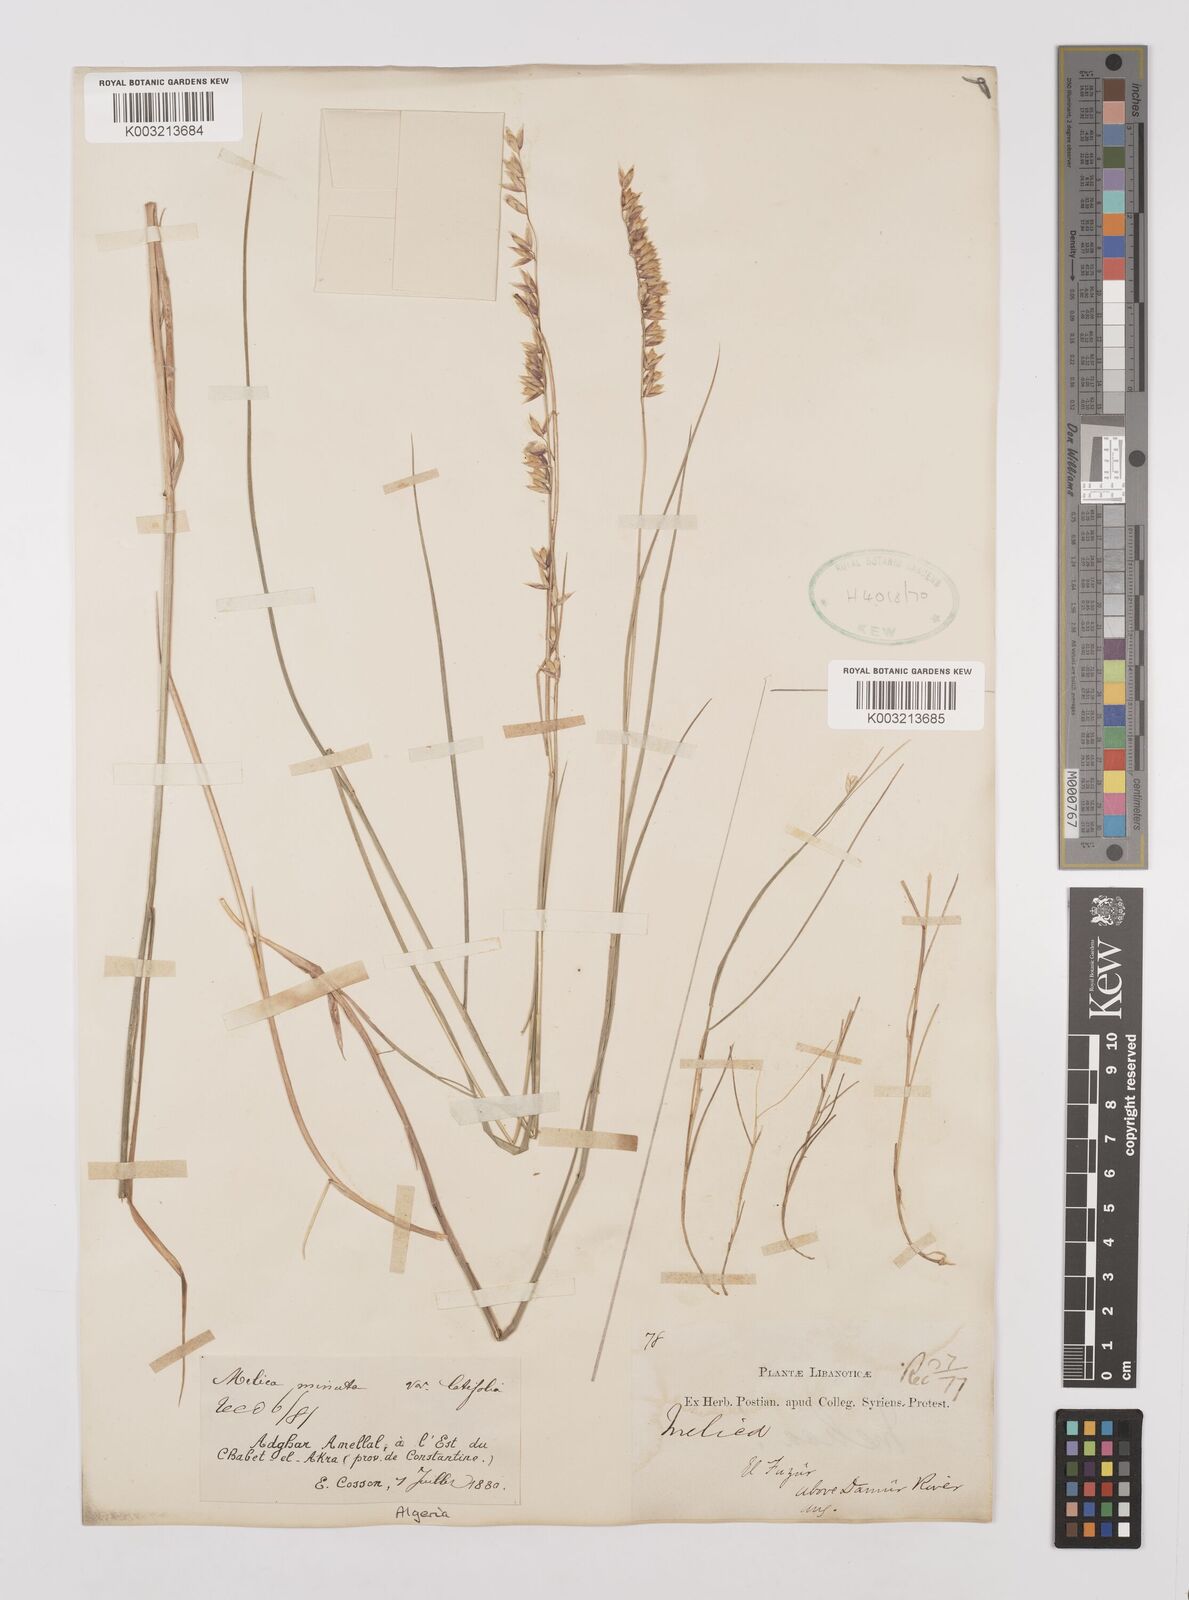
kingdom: Plantae
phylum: Tracheophyta
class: Liliopsida
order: Poales
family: Poaceae
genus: Melica
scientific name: Melica minuta
